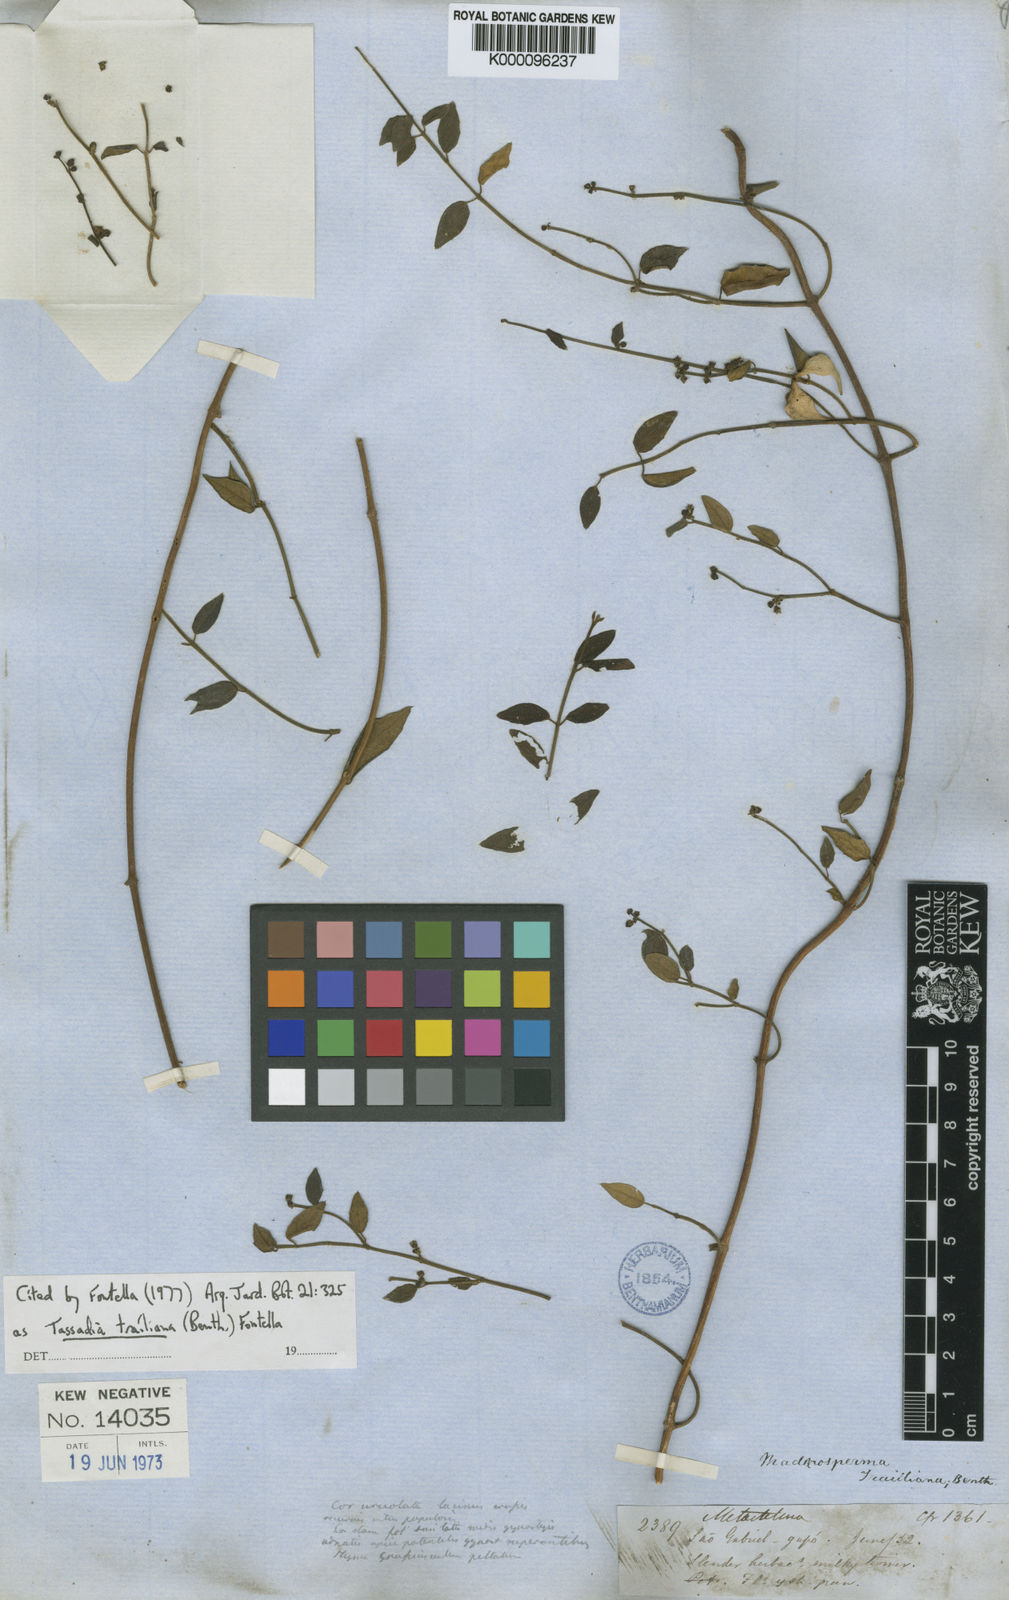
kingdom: Plantae
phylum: Tracheophyta
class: Magnoliopsida
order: Gentianales
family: Apocynaceae
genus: Tassadia
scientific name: Tassadia trailiana
